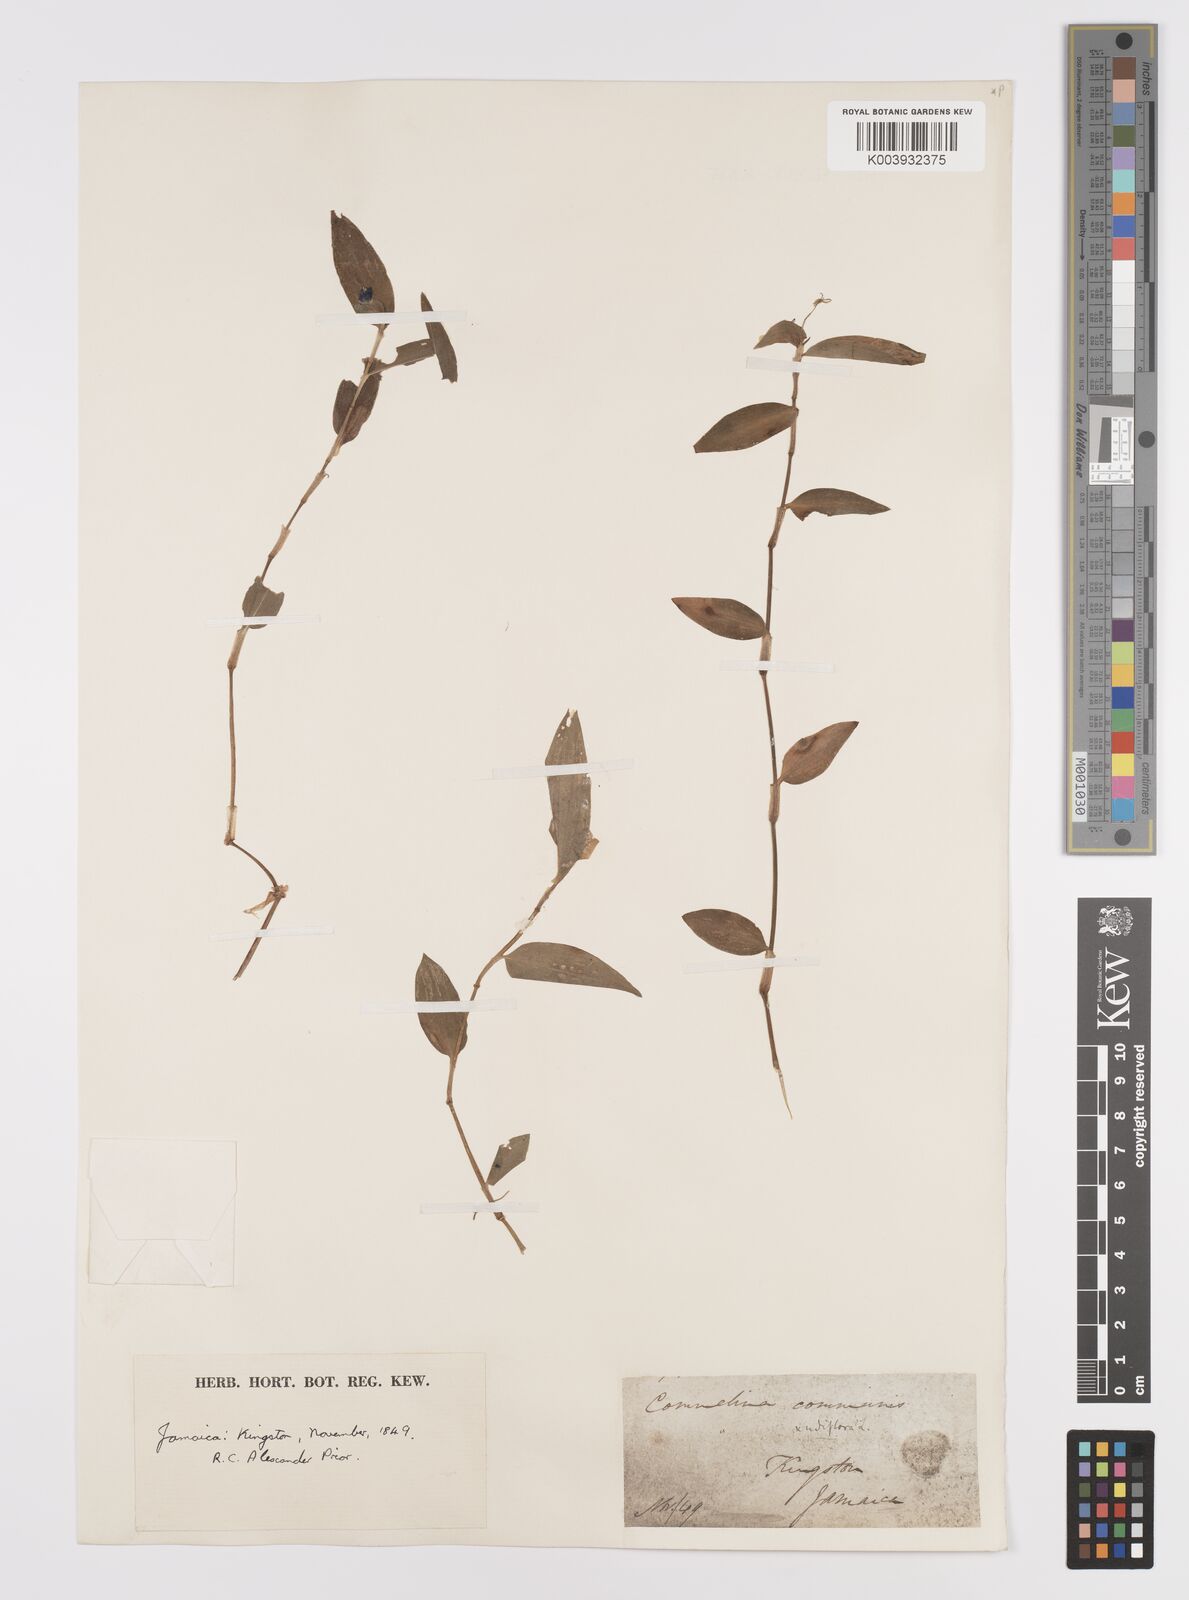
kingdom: Plantae
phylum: Tracheophyta
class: Liliopsida
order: Commelinales
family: Commelinaceae
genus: Commelina
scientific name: Commelina
